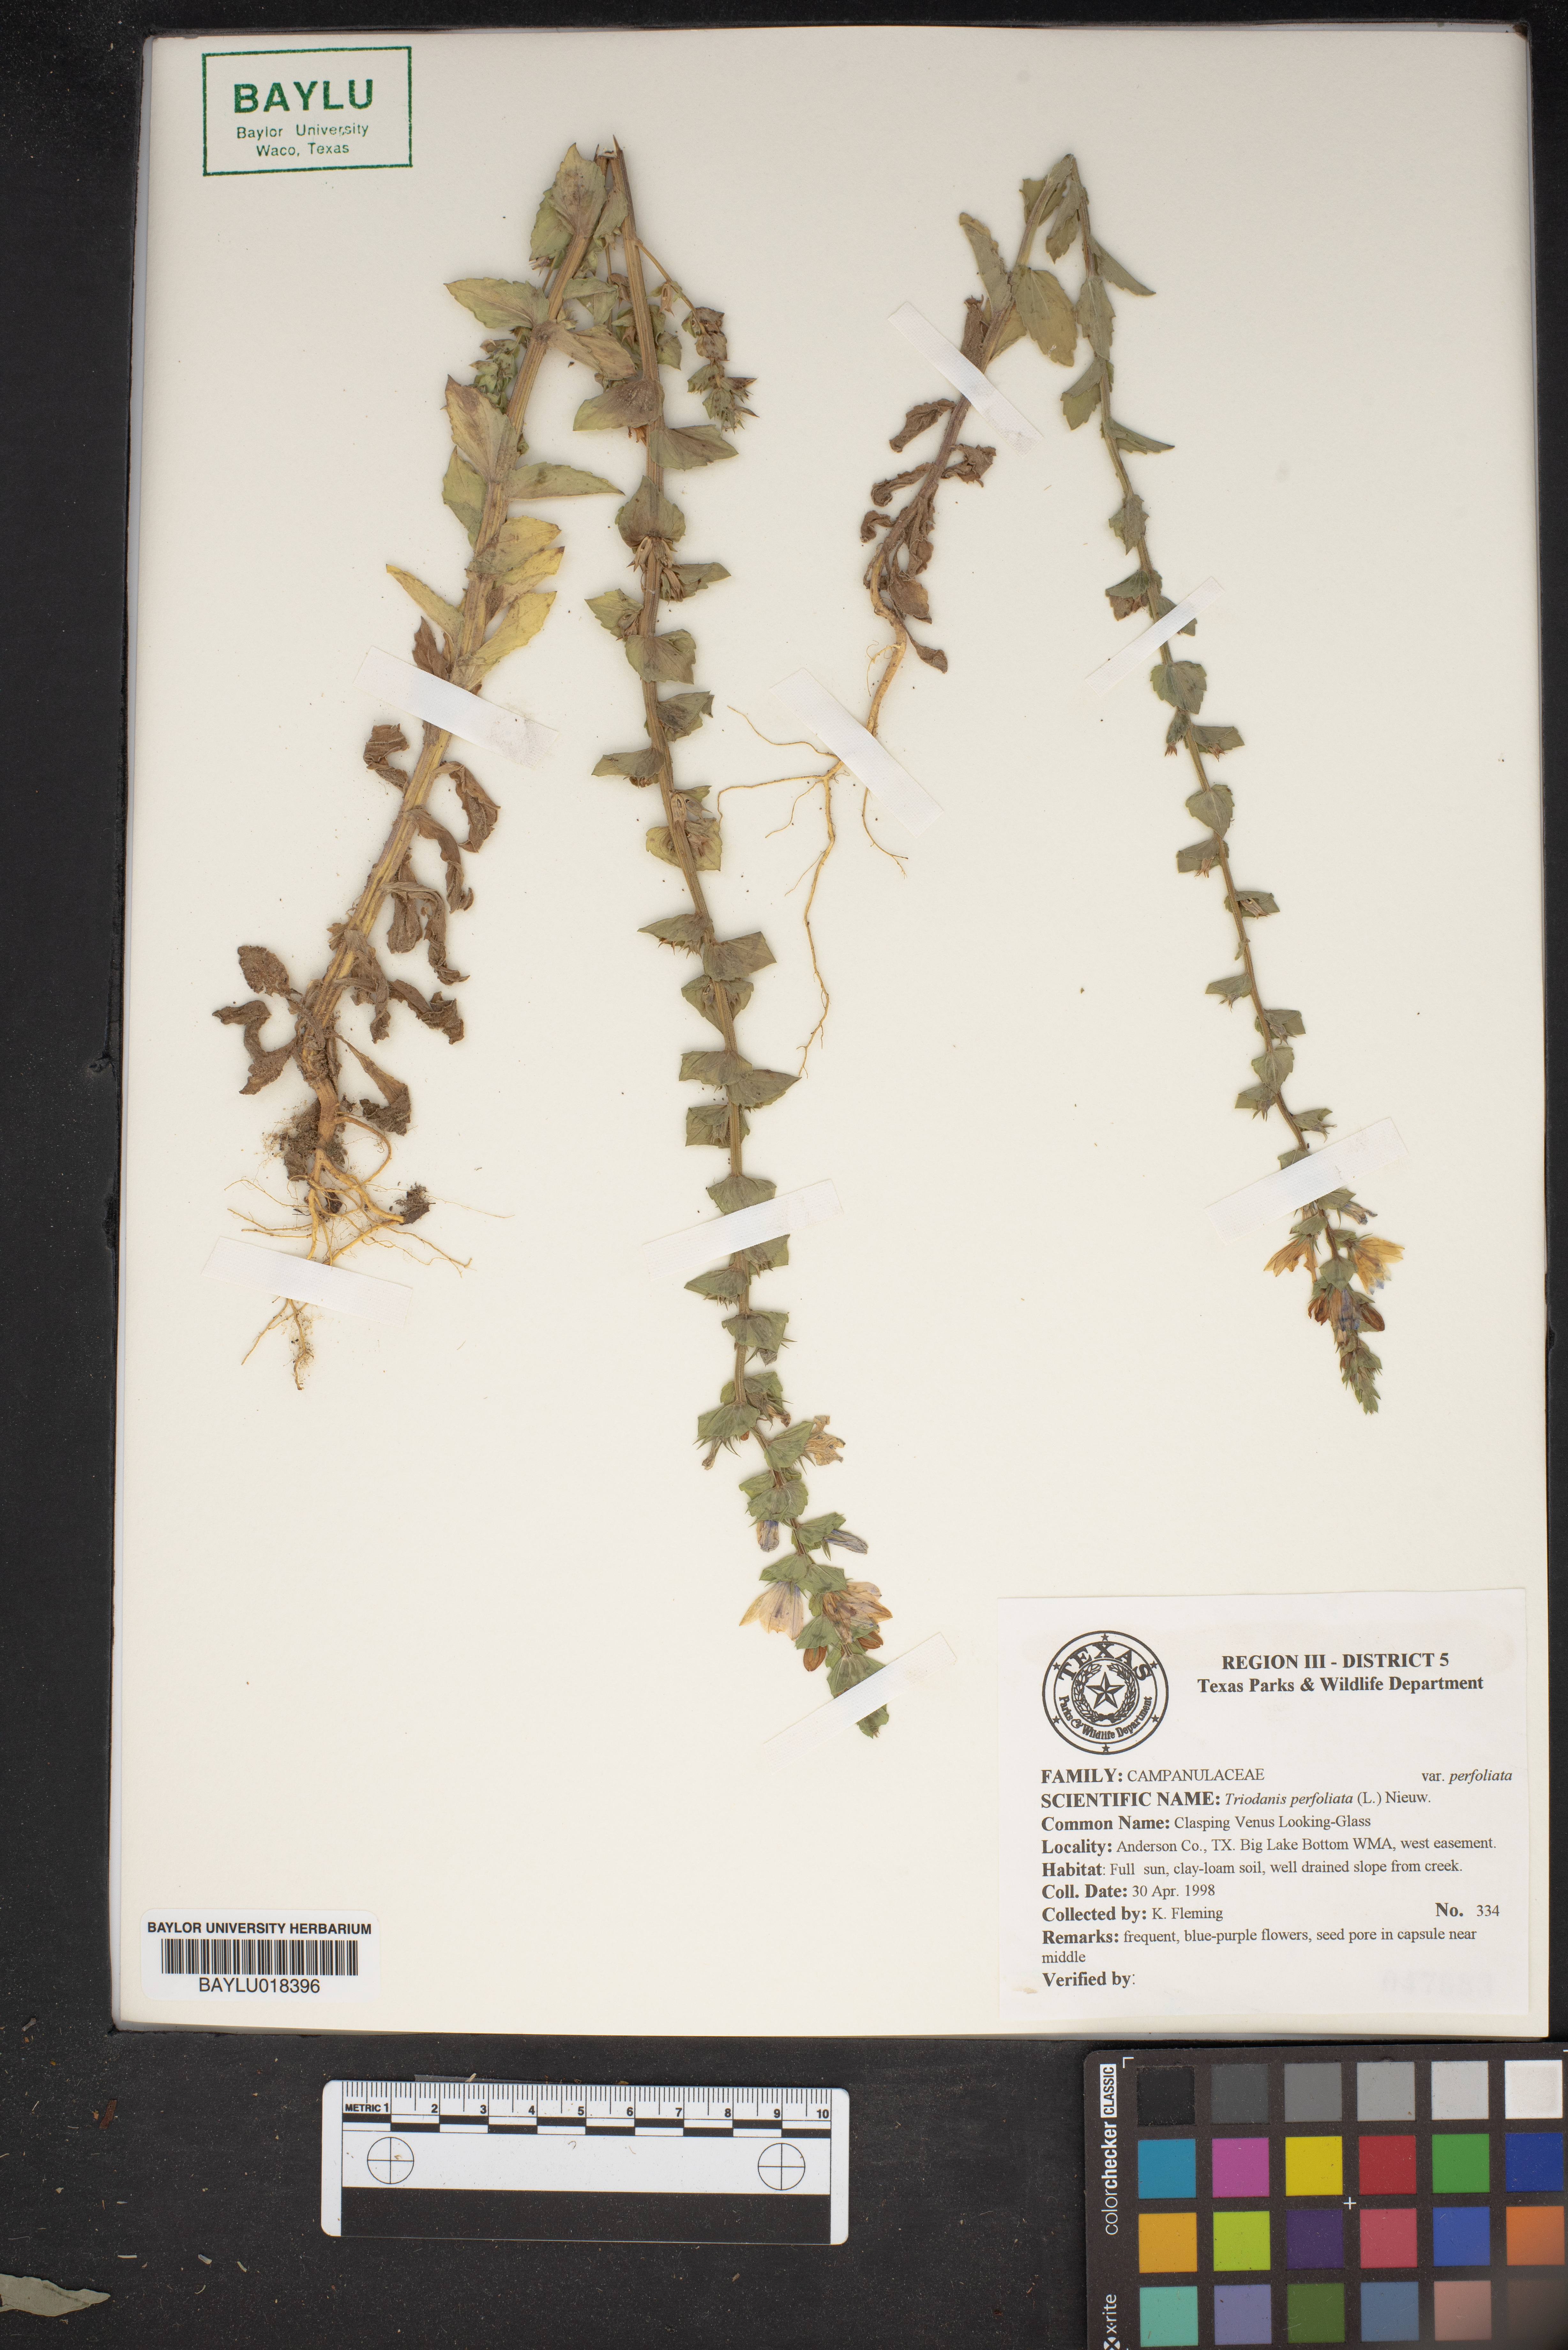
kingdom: Plantae
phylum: Tracheophyta
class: Magnoliopsida
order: Asterales
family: Campanulaceae
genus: Triodanis
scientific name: Triodanis perfoliata
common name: Clasping venus' looking-glass
